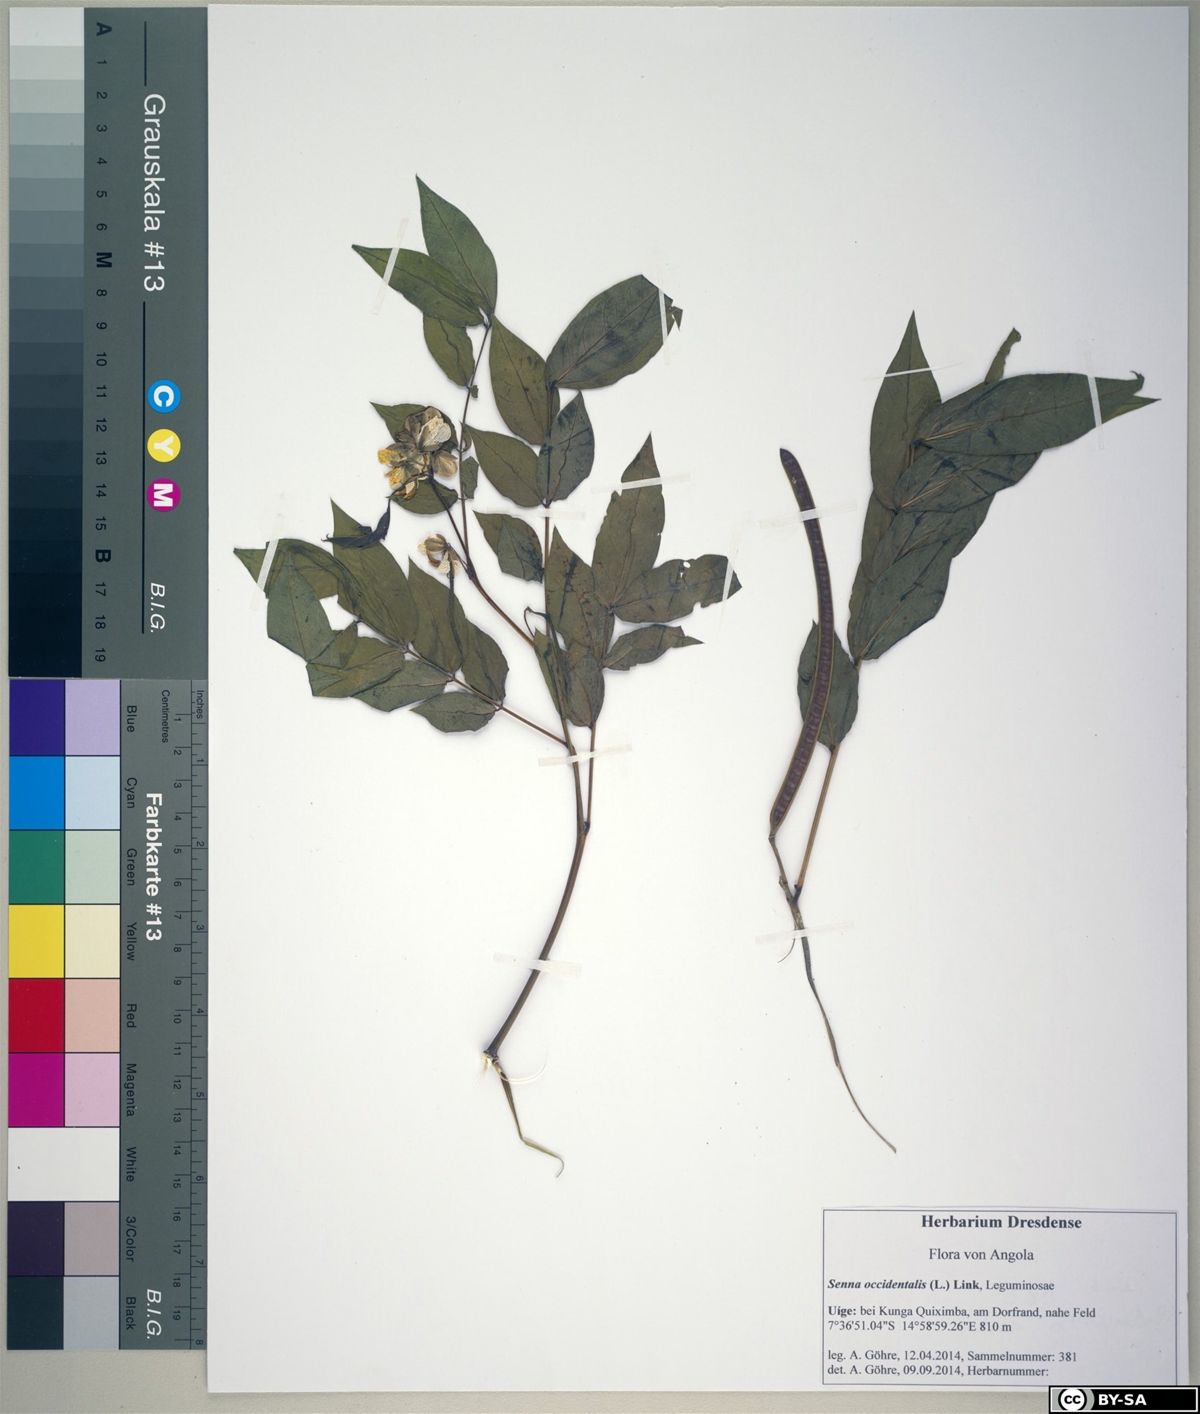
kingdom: Plantae
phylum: Tracheophyta
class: Magnoliopsida
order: Fabales
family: Fabaceae
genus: Senna
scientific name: Senna occidentalis
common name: Septicweed
